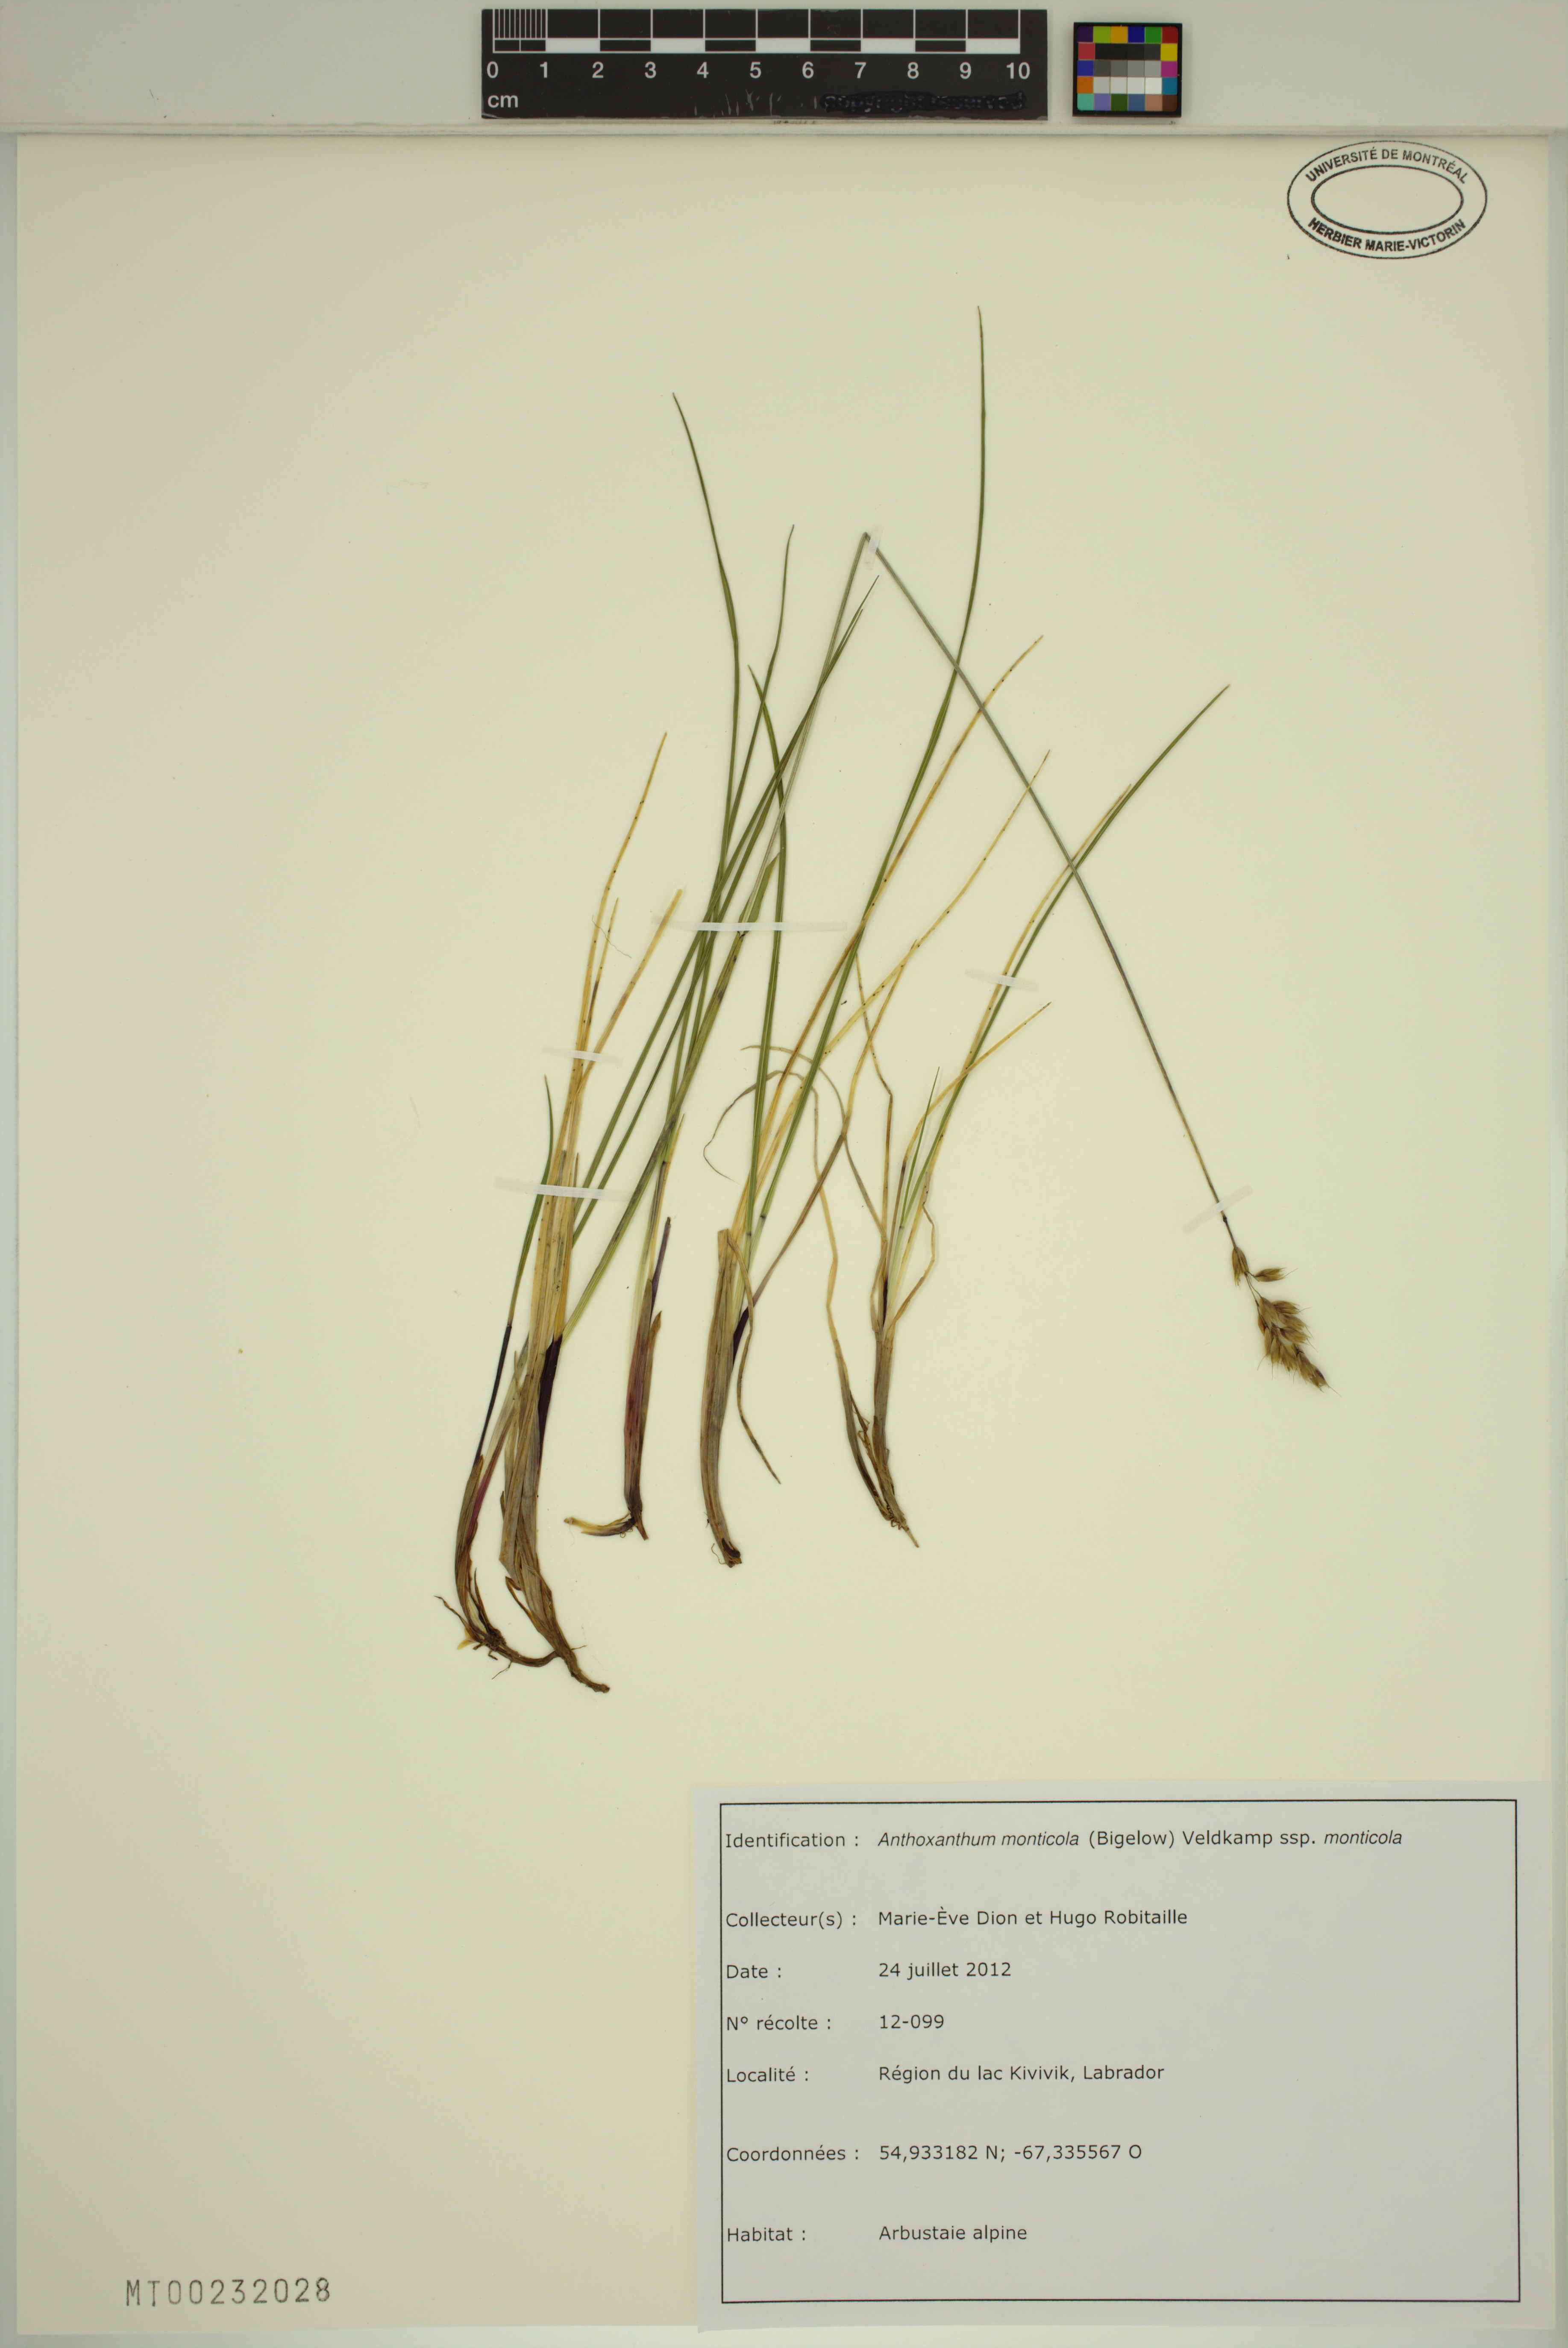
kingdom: Plantae
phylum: Tracheophyta
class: Liliopsida
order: Poales
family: Poaceae
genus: Anthoxanthum
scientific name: Anthoxanthum monticola
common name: Alpine sweetgrass
